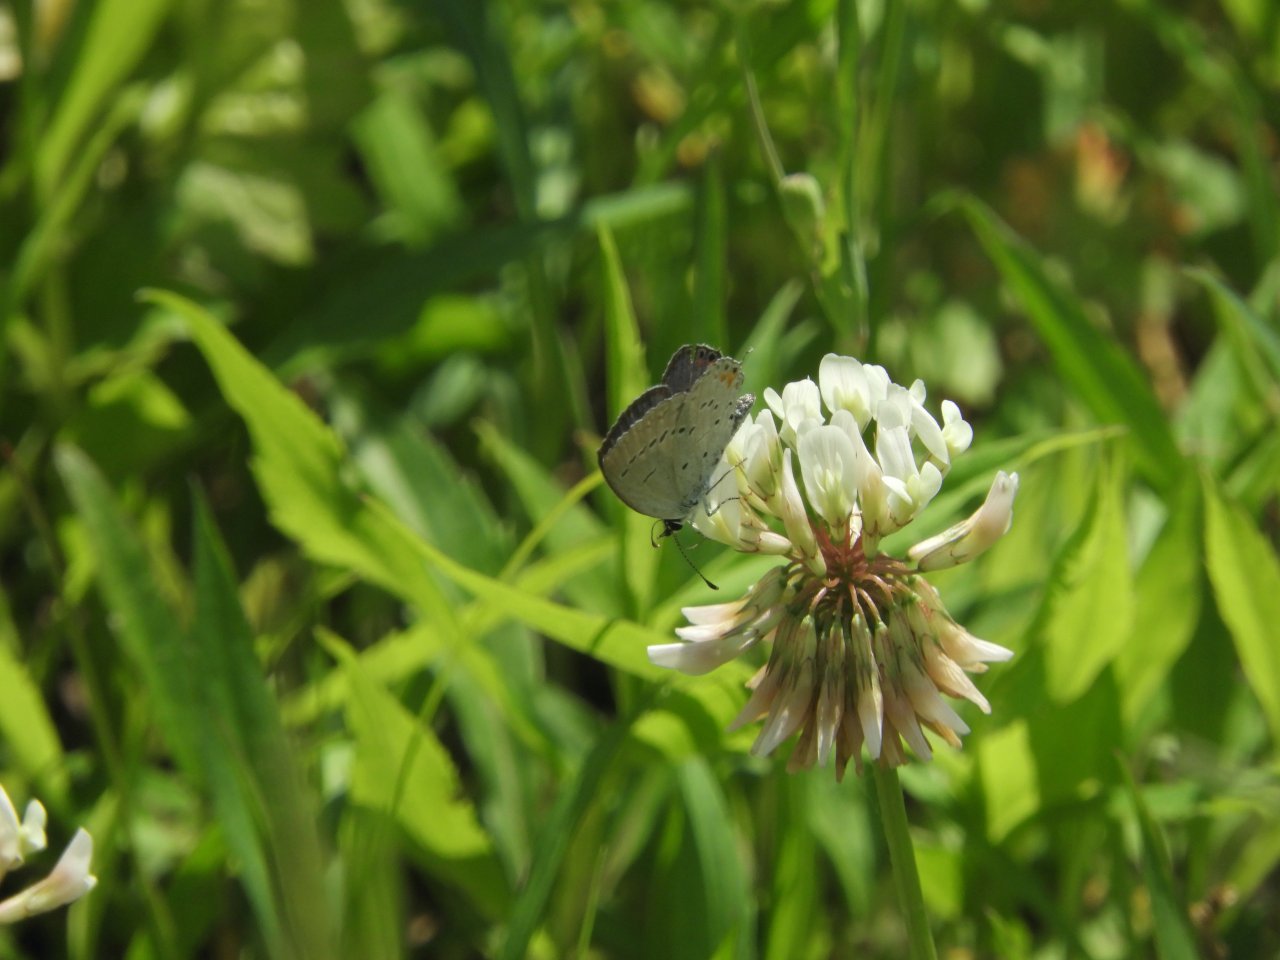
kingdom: Animalia
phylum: Arthropoda
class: Insecta
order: Lepidoptera
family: Lycaenidae
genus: Elkalyce
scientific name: Elkalyce comyntas
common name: Eastern Tailed-Blue
